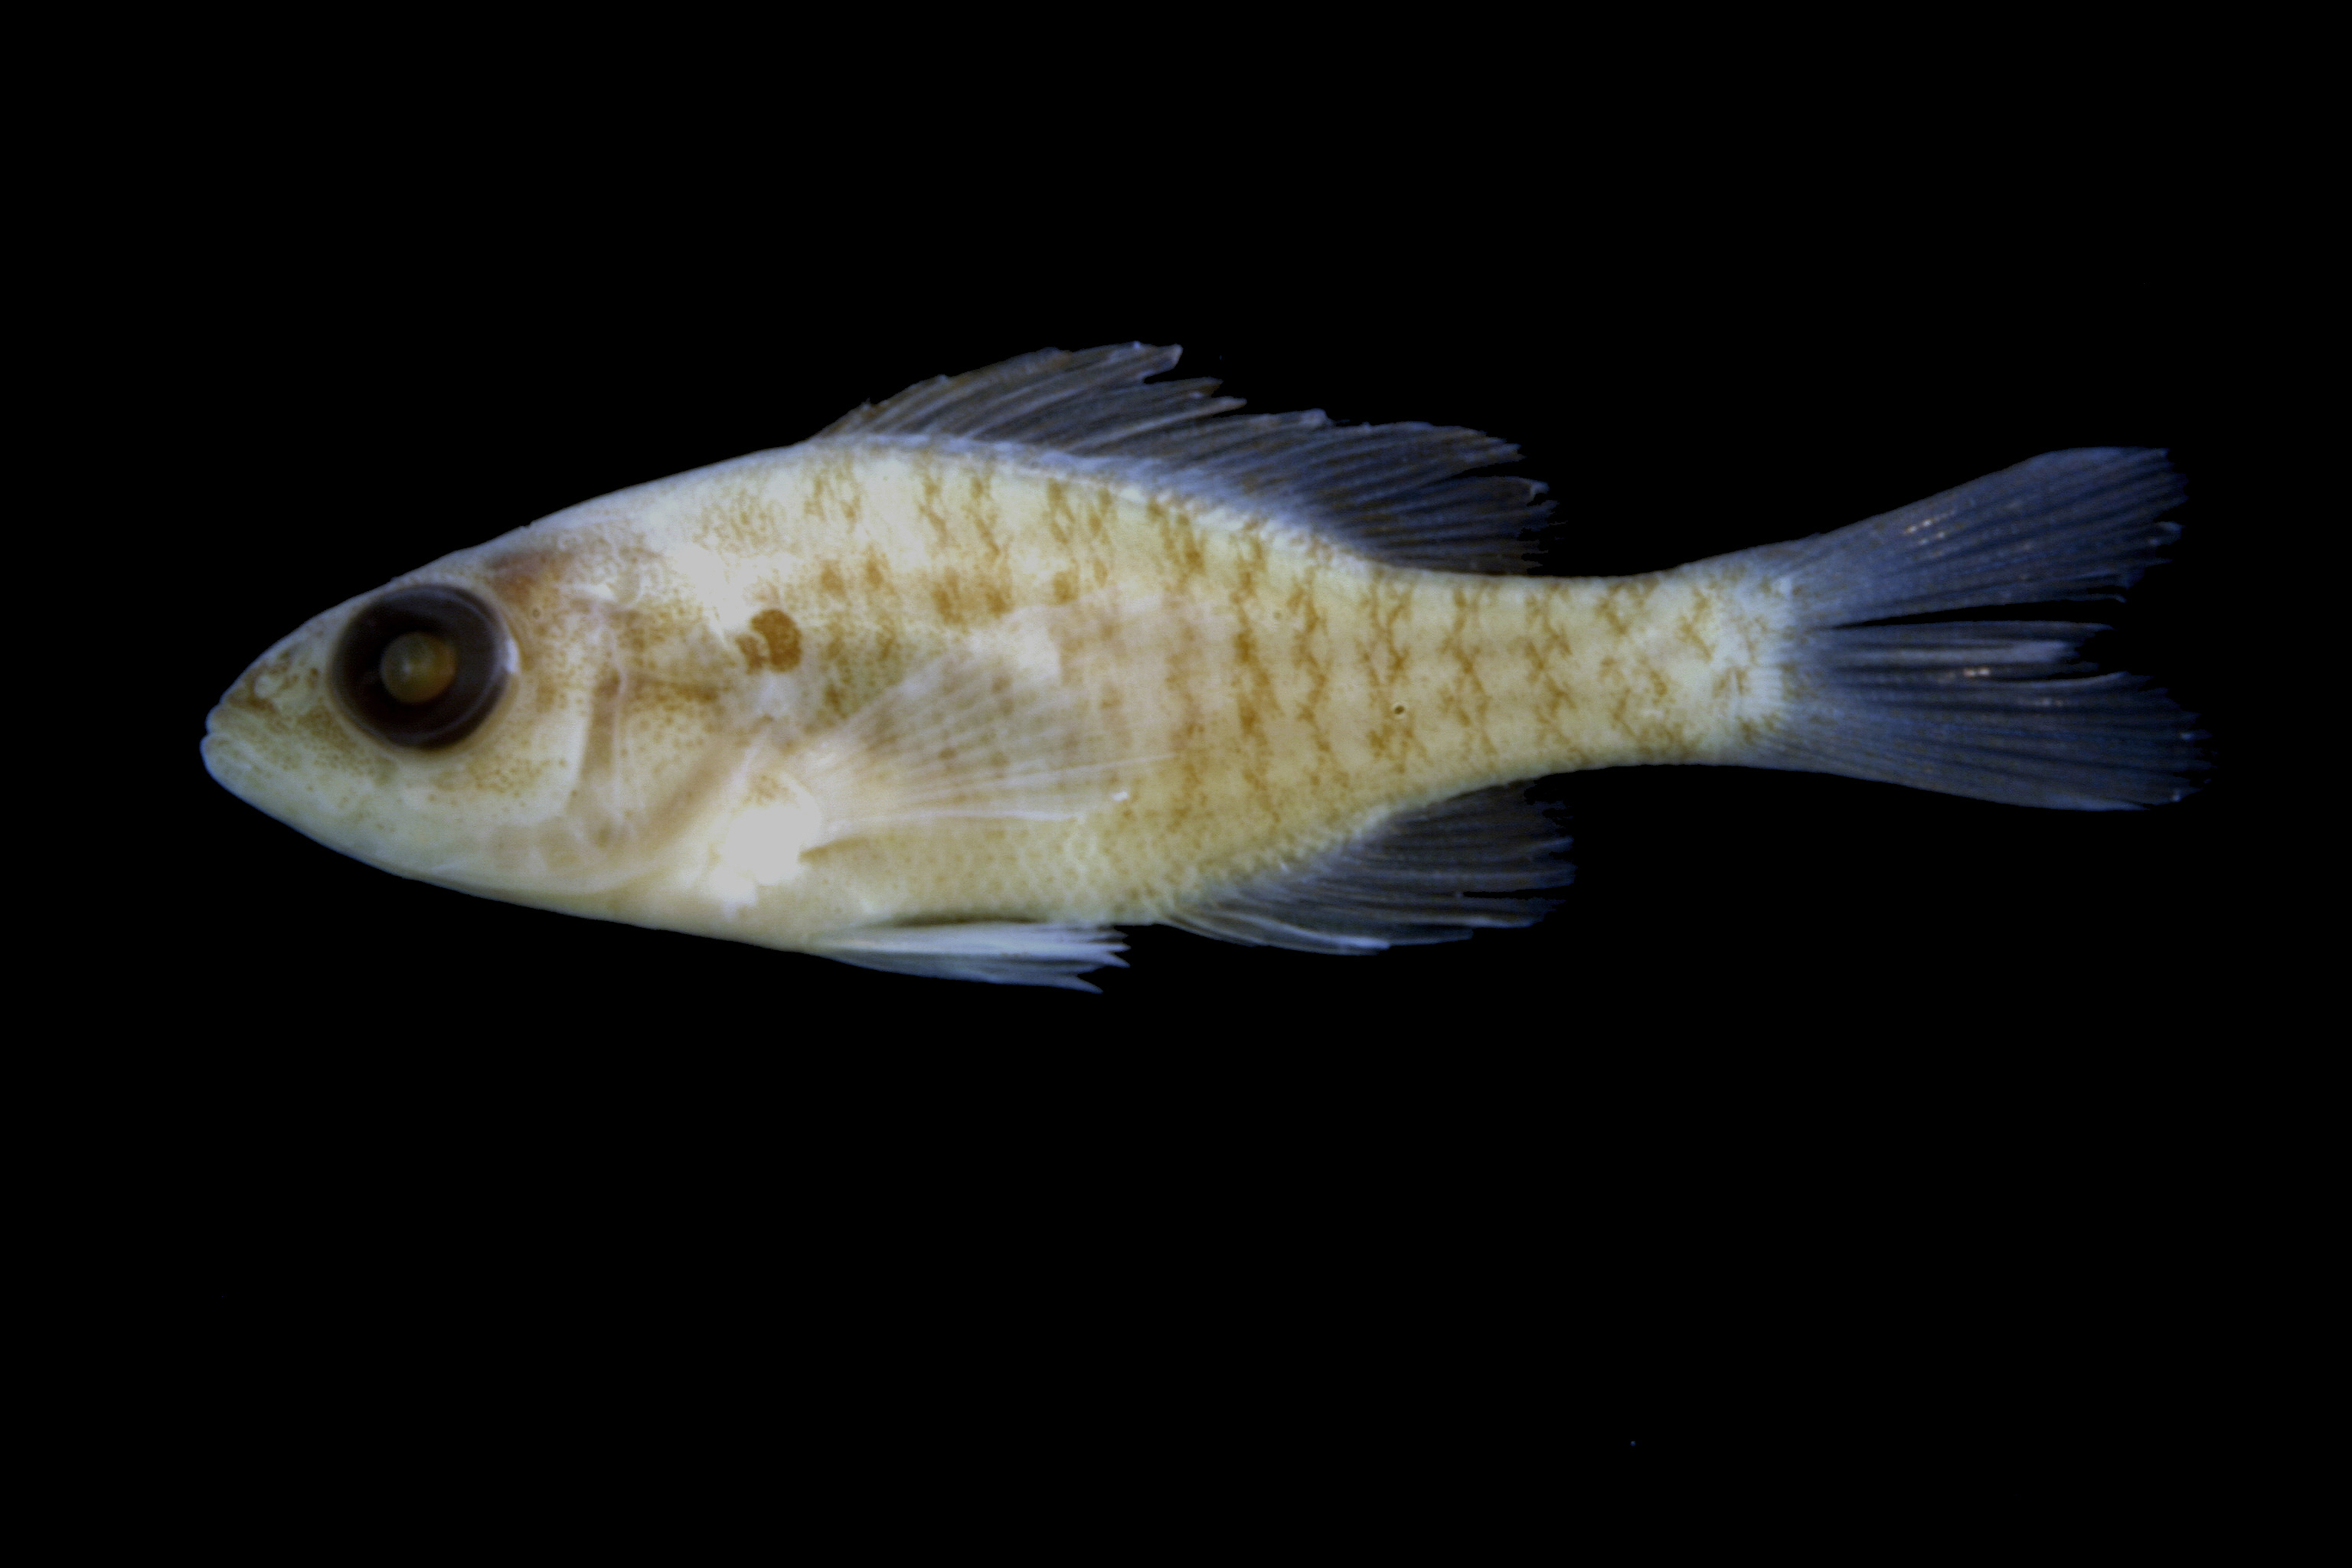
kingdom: Animalia
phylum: Chordata
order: Perciformes
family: Centrarchidae
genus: Lepomis
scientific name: Lepomis humilis
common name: Orangespotted sunfish
